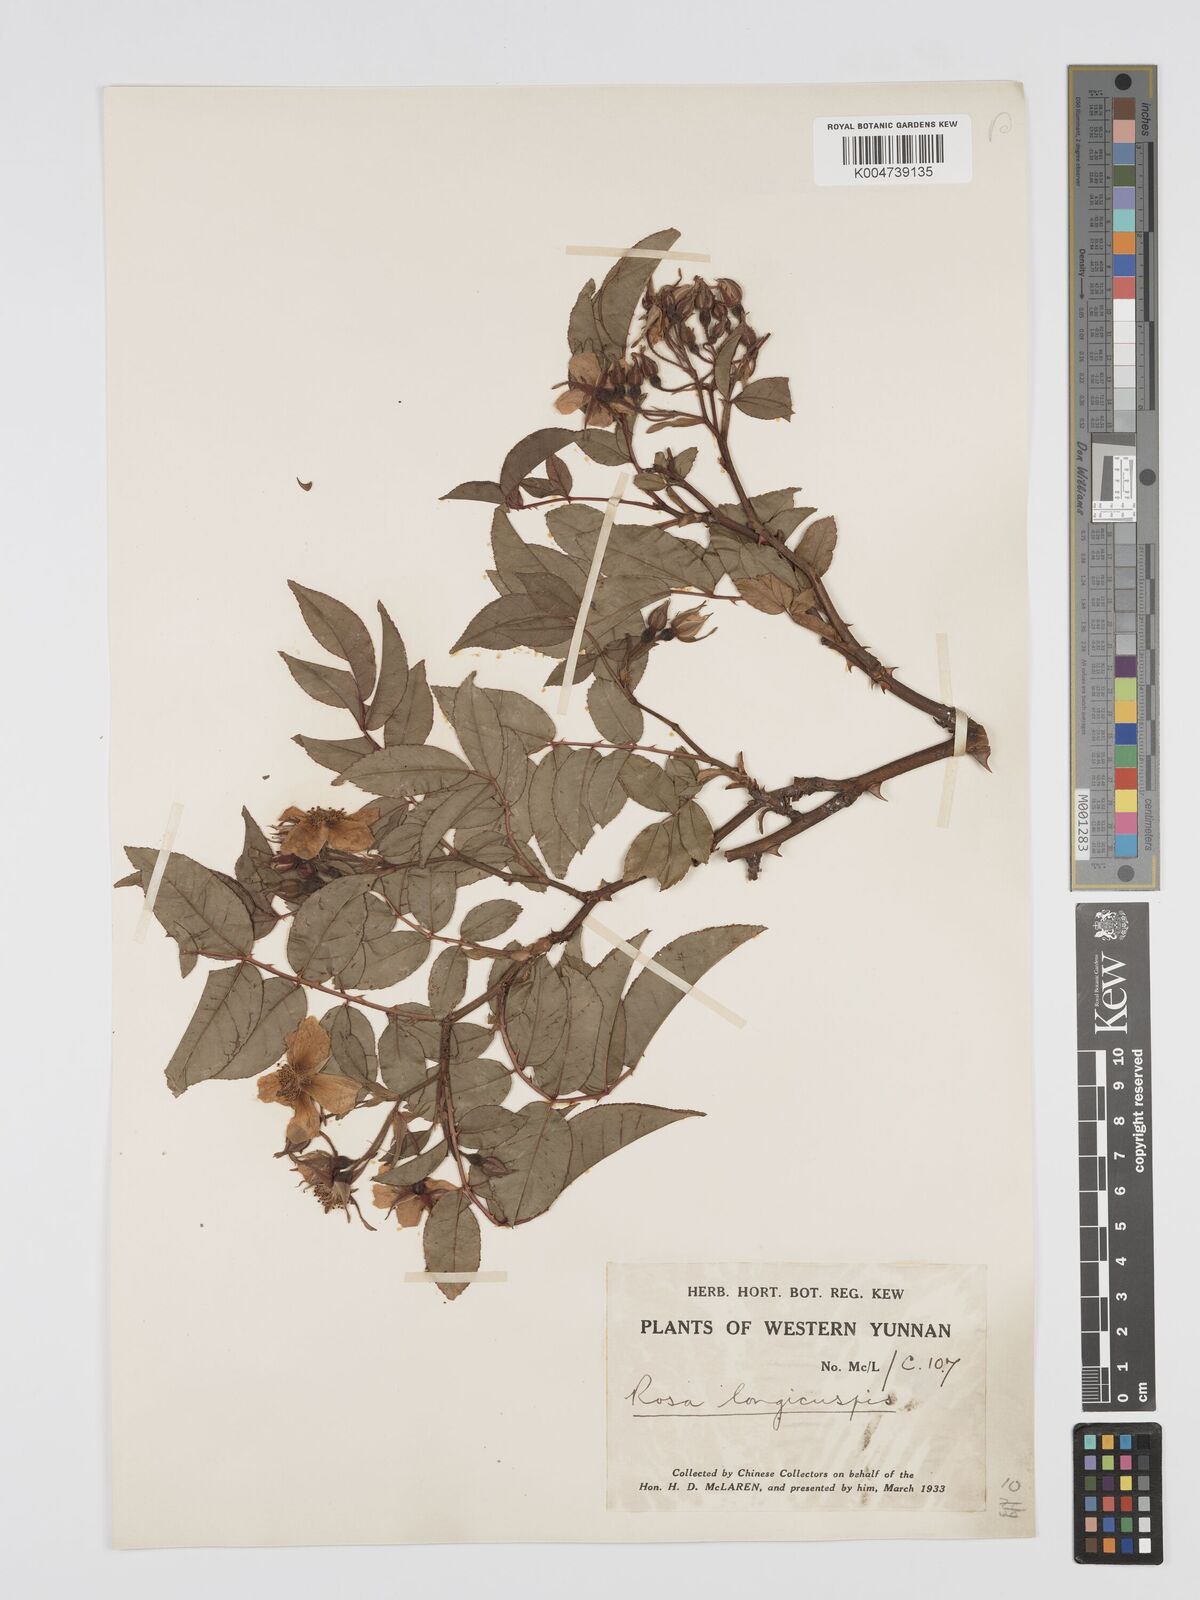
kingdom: Plantae
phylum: Tracheophyta
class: Magnoliopsida
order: Rosales
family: Rosaceae
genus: Rosa
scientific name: Rosa longicuspis
